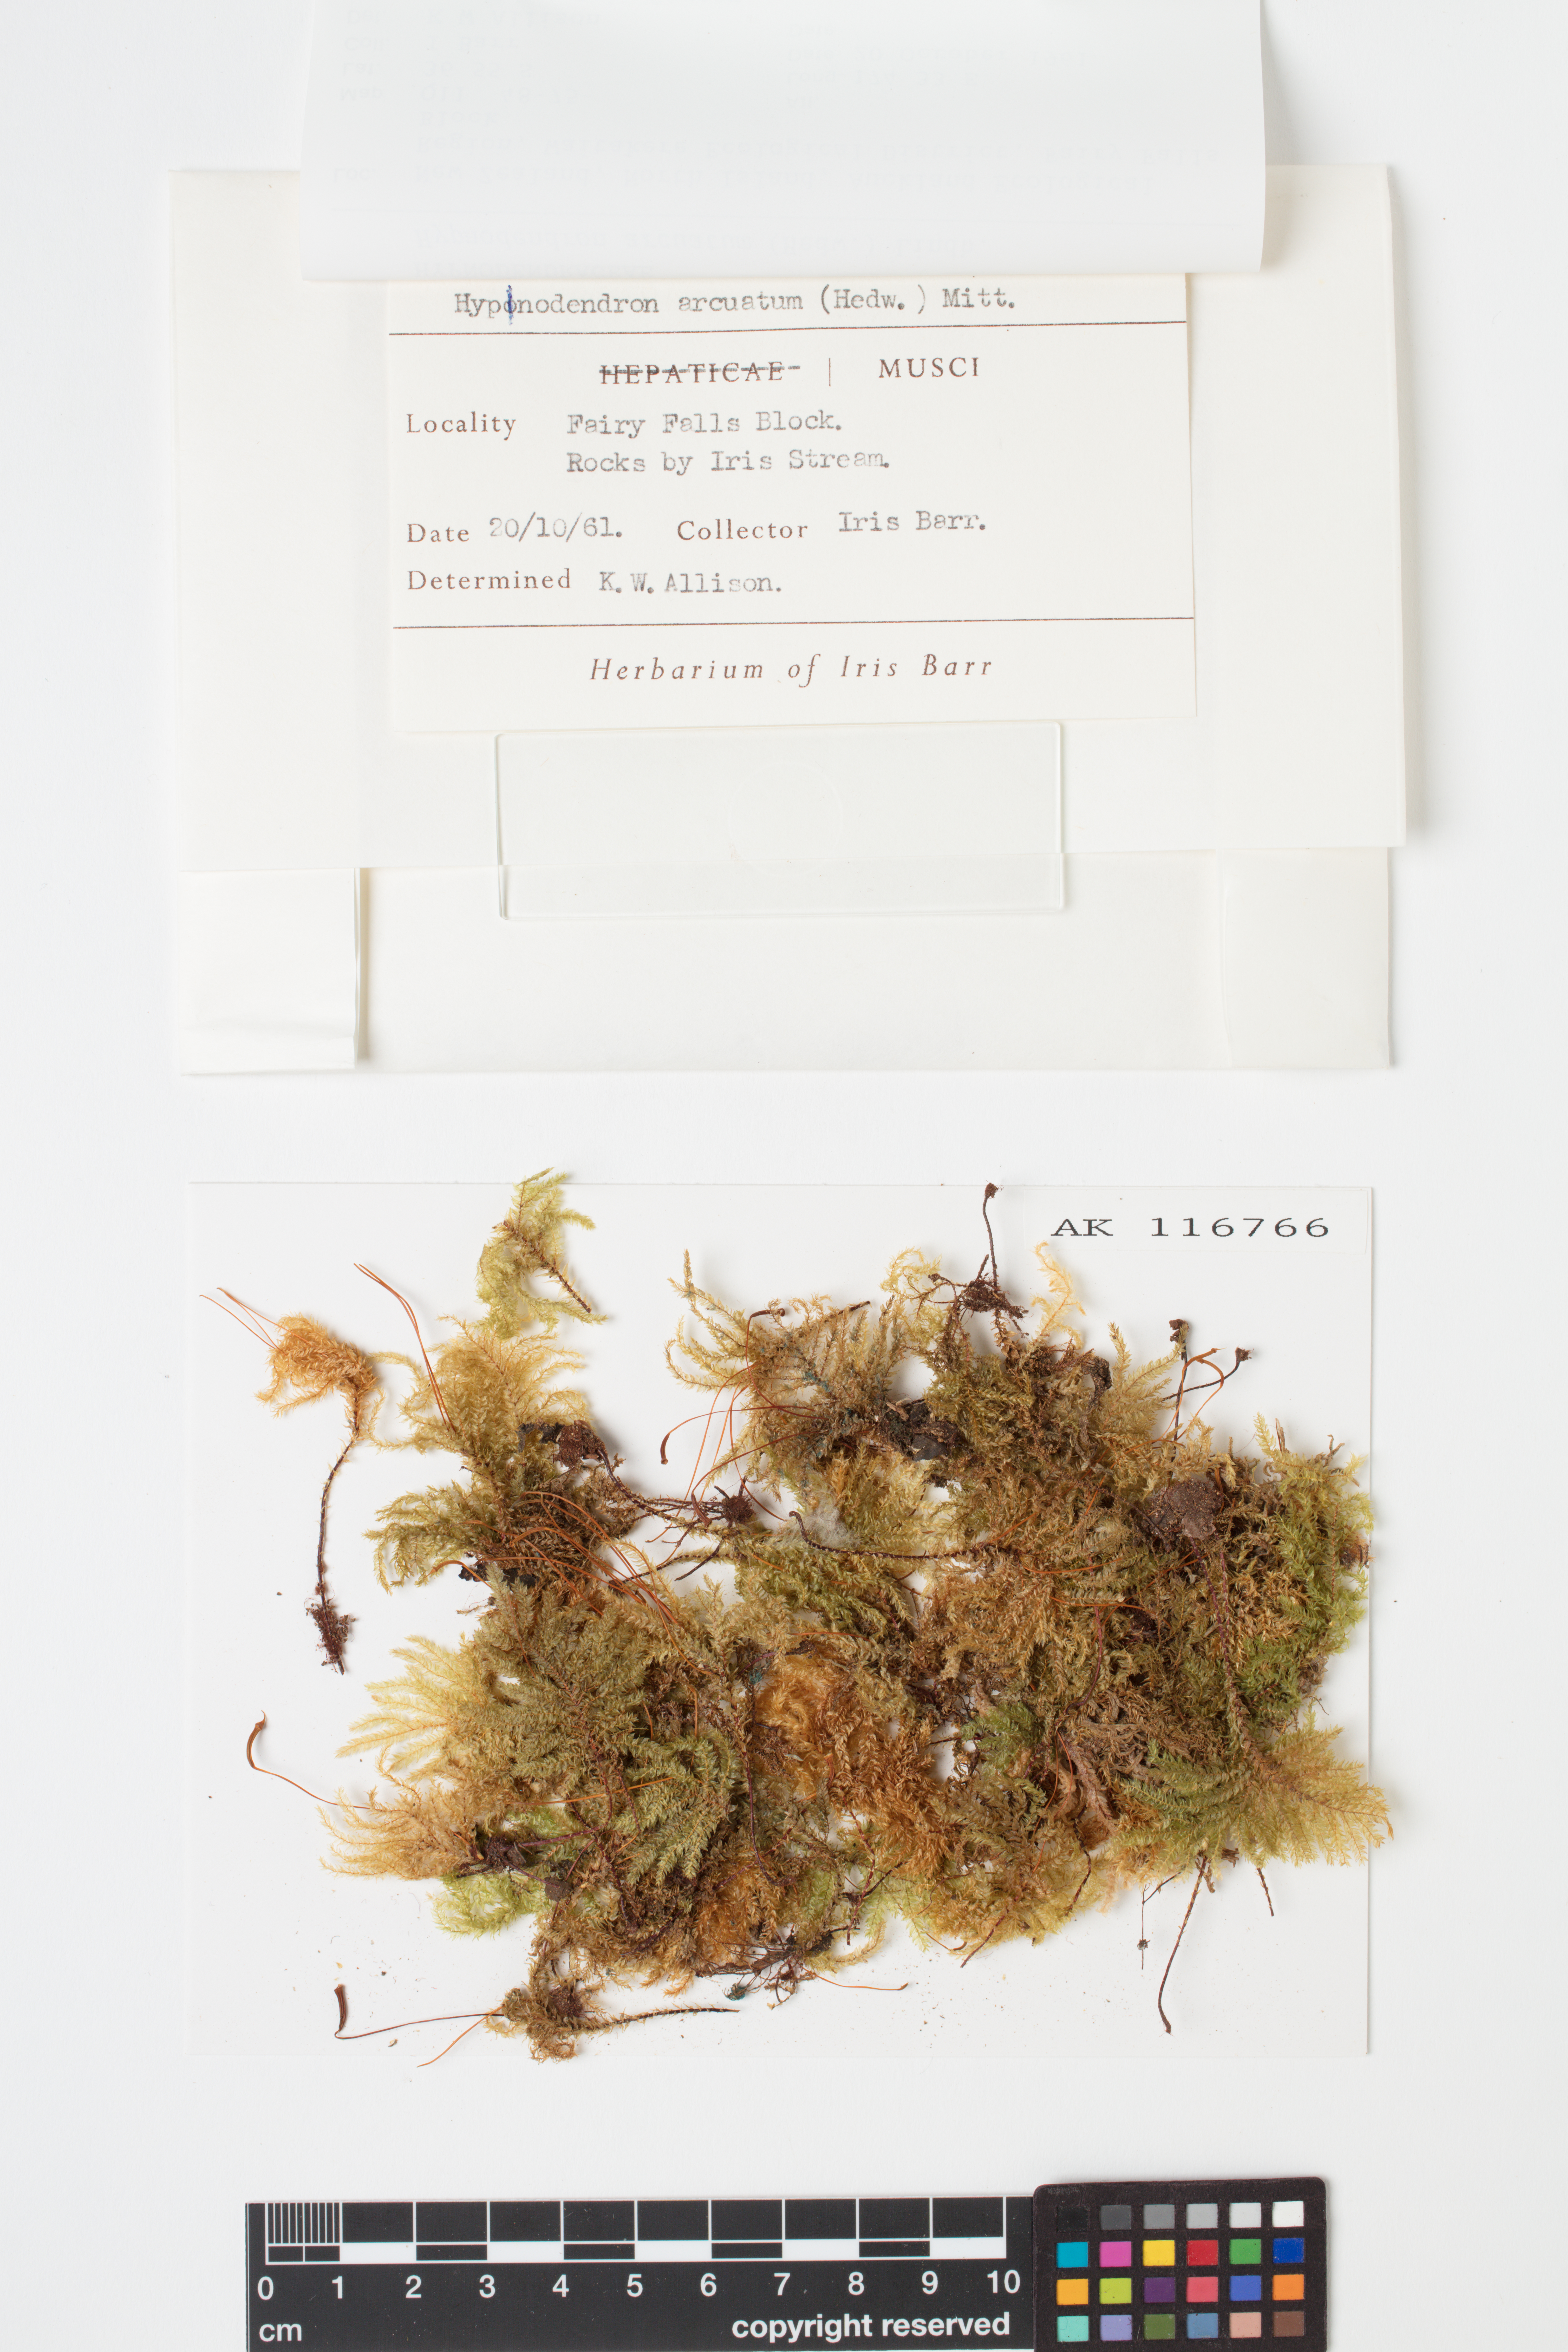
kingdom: Plantae
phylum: Bryophyta
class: Bryopsida
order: Hypnodendrales
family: Spiridentaceae
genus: Hypnodendron
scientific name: Hypnodendron arcuatum
